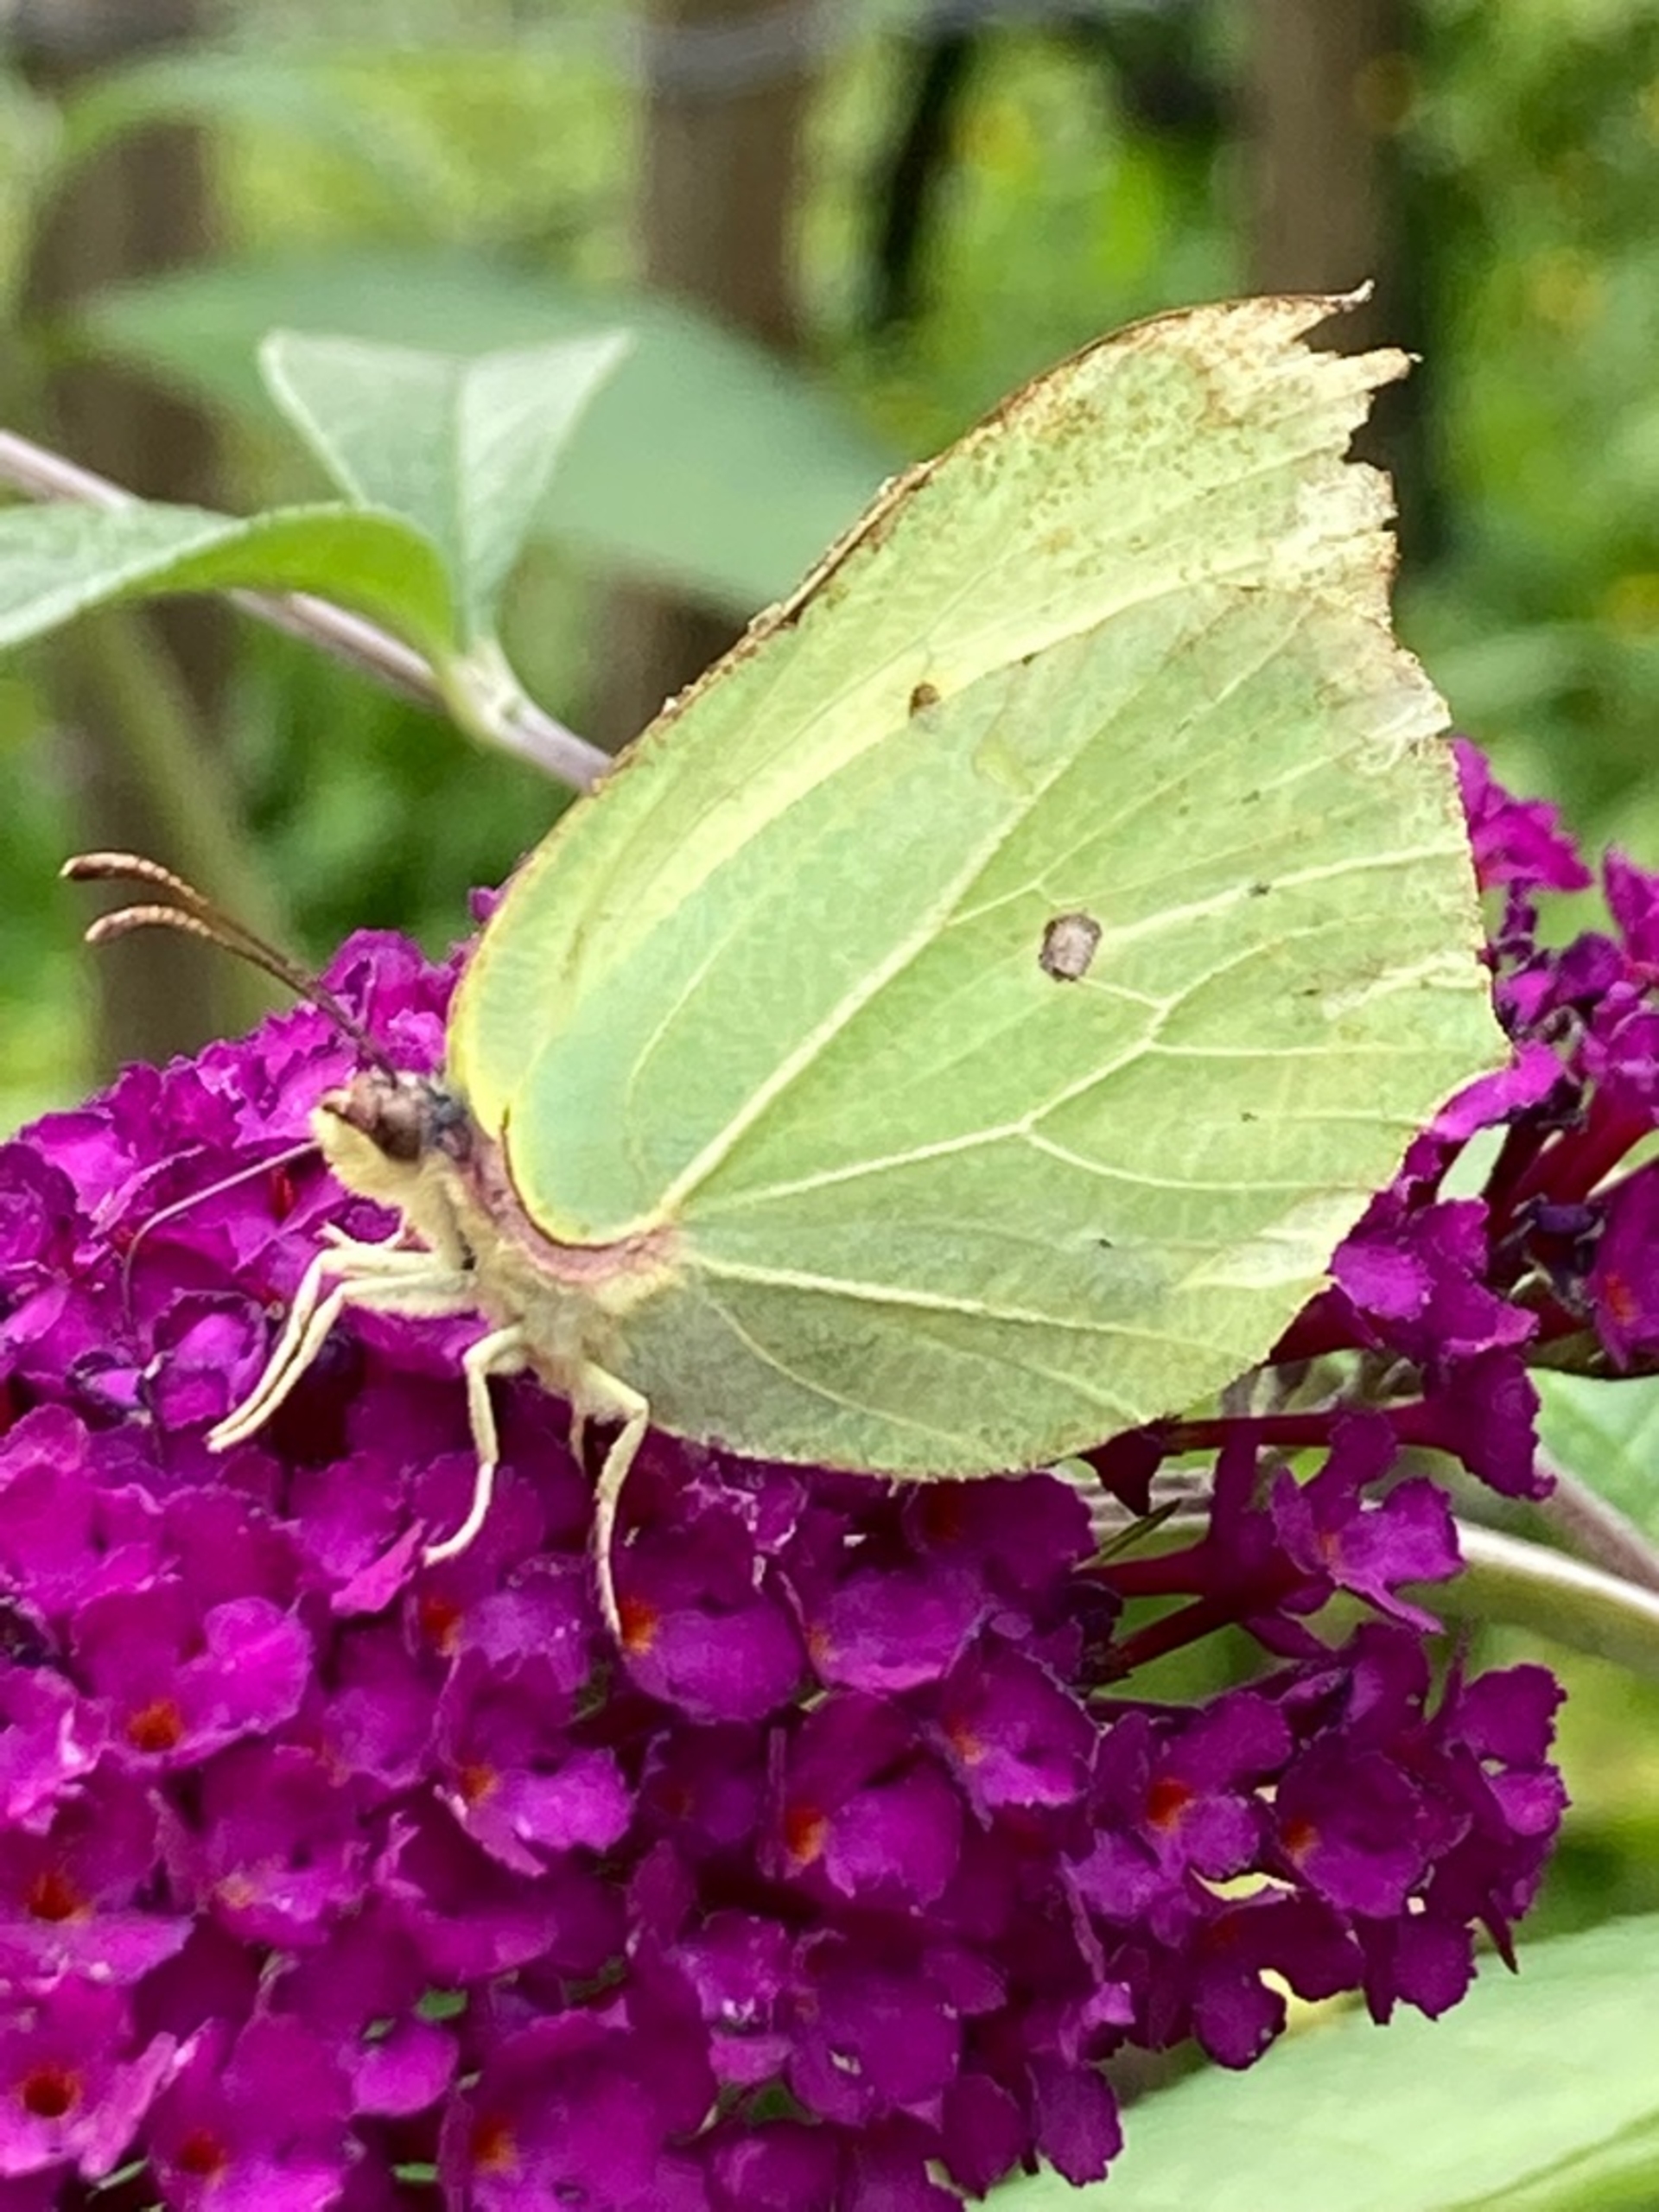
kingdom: Animalia
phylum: Arthropoda
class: Insecta
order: Lepidoptera
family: Pieridae
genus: Gonepteryx
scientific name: Gonepteryx rhamni
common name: Citronsommerfugl
